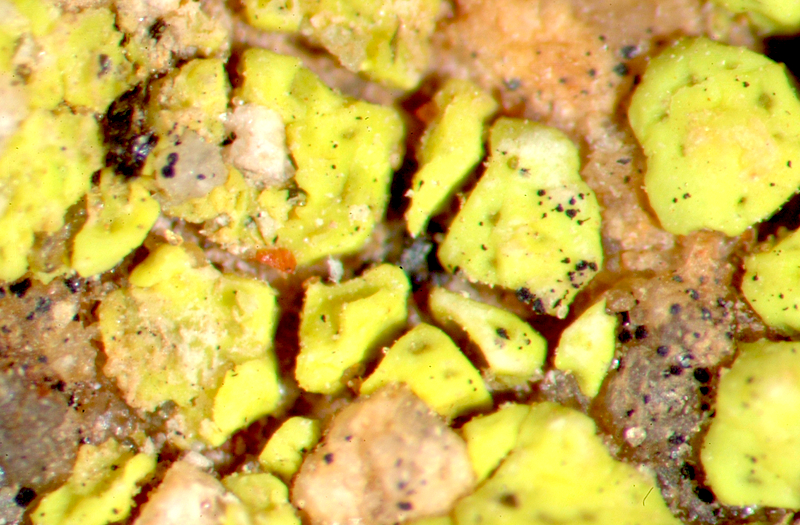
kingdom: Fungi
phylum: Ascomycota
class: Lecanoromycetes
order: Acarosporales
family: Acarosporaceae
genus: Acarospora
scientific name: Acarospora heufleriana
